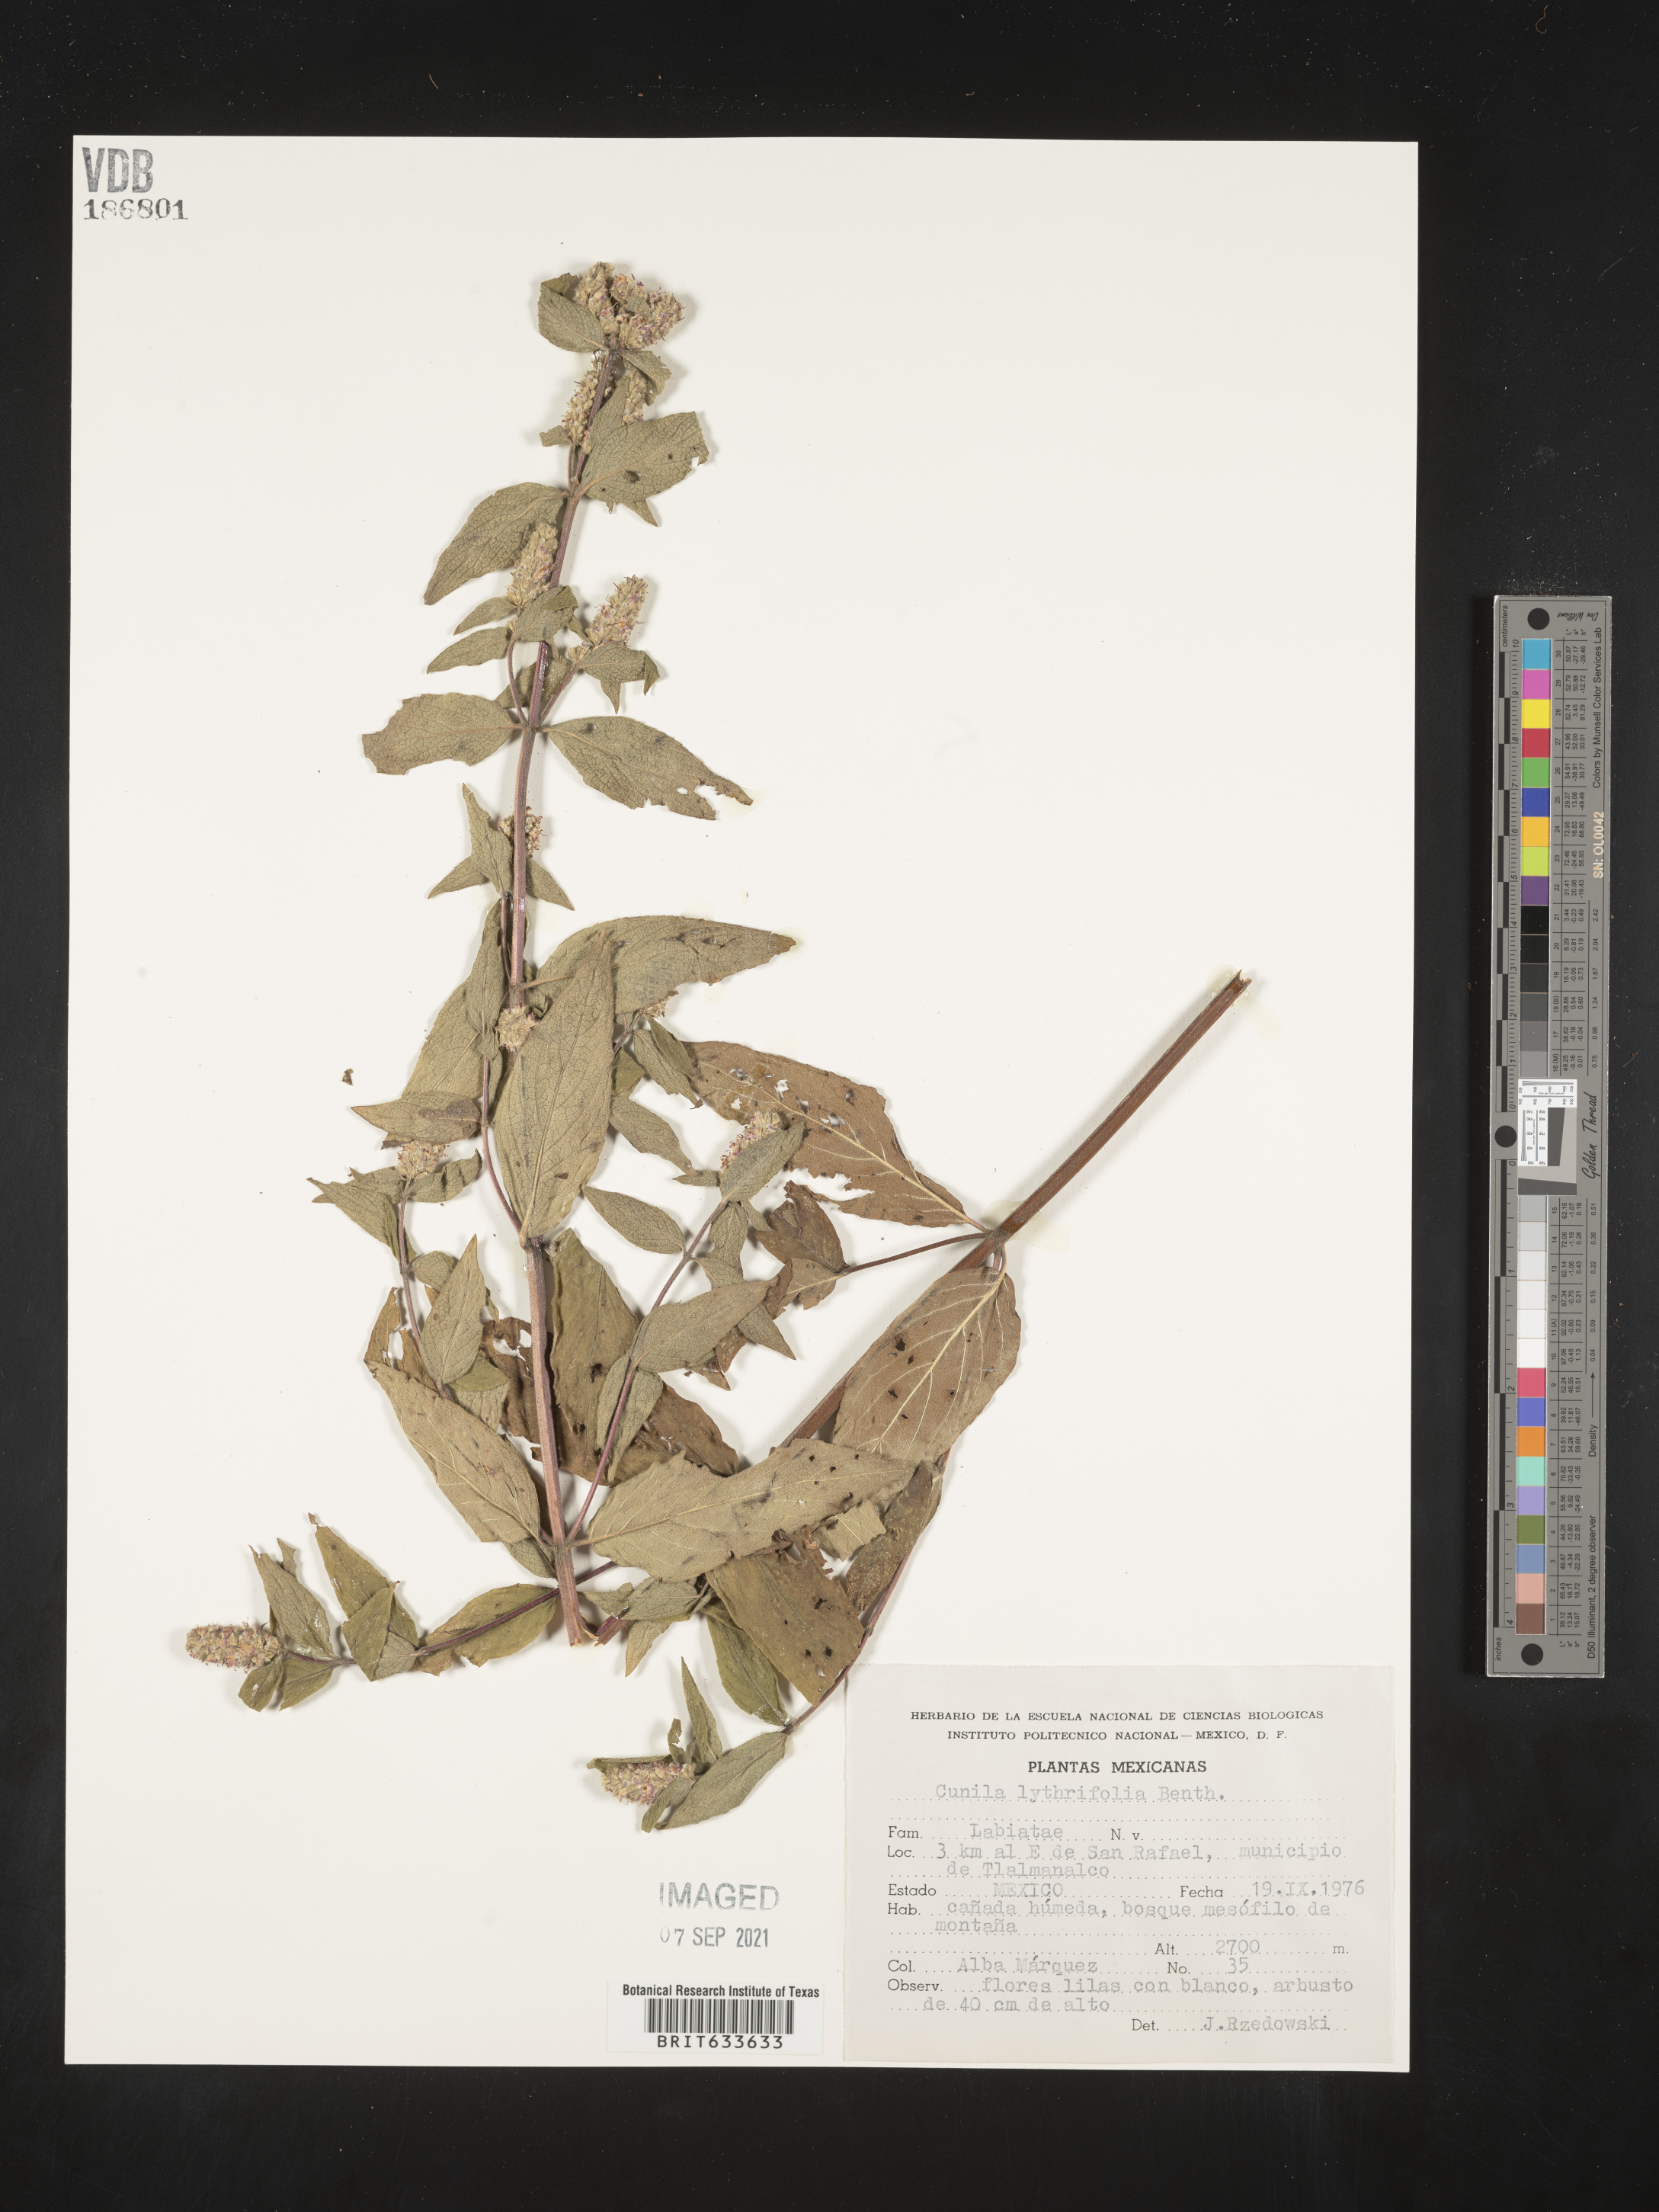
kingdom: Plantae
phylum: Tracheophyta
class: Magnoliopsida
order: Lamiales
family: Lamiaceae
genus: Cunila
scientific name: Cunila
